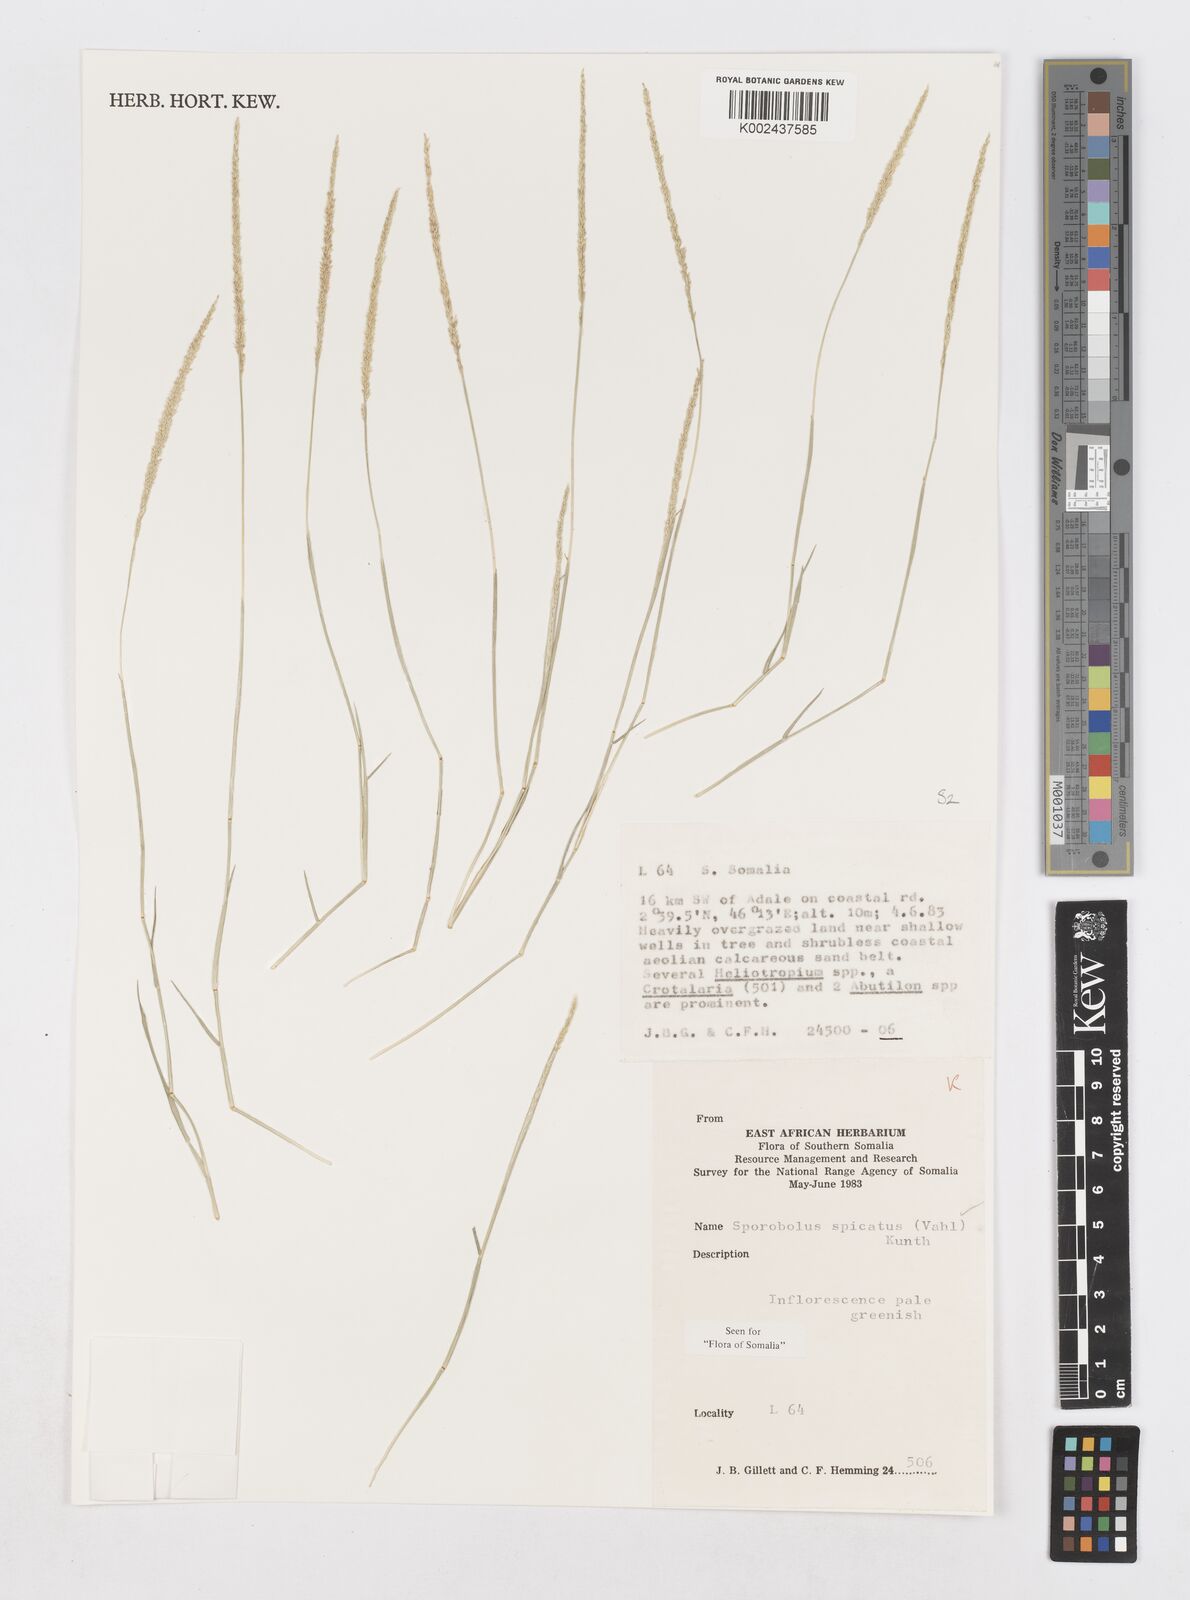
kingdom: Plantae
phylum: Tracheophyta
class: Liliopsida
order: Poales
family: Poaceae
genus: Sporobolus
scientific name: Sporobolus spicatus
